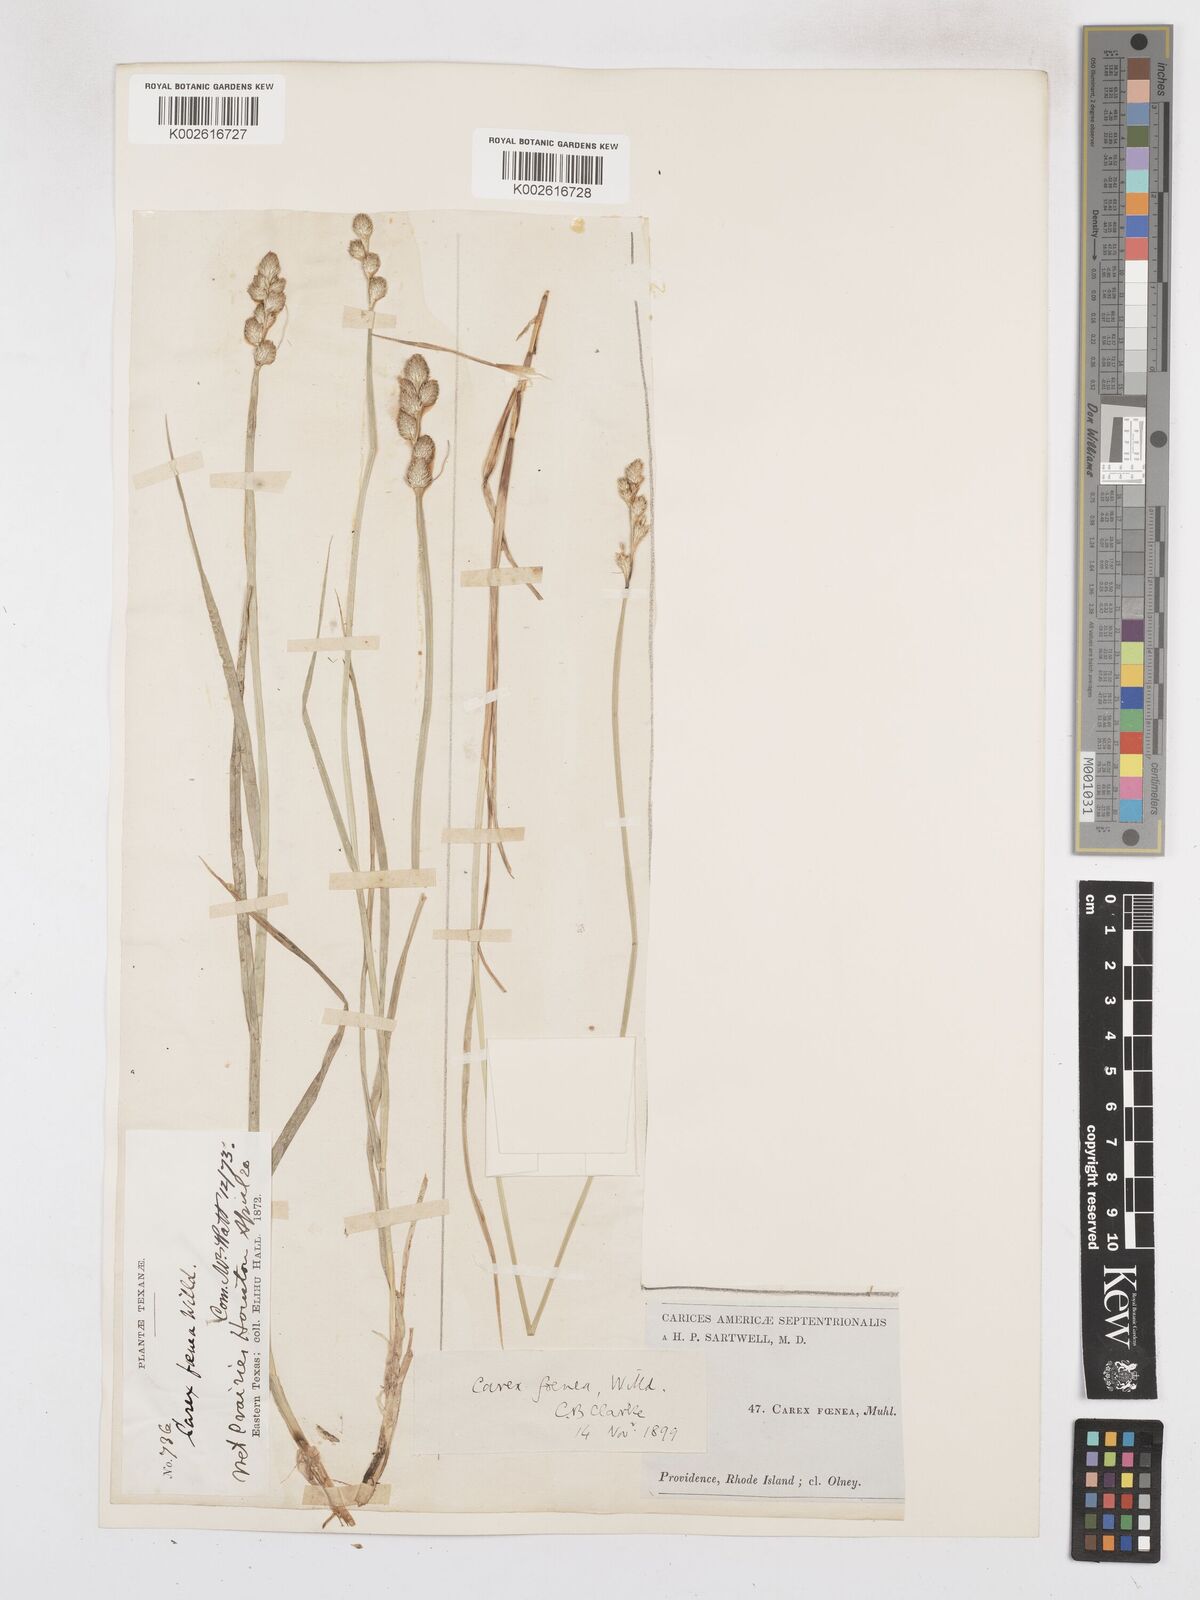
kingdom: Plantae
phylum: Tracheophyta
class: Liliopsida
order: Poales
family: Cyperaceae
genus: Carex
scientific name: Carex argyrantha
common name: Silvery-flowered sedge
